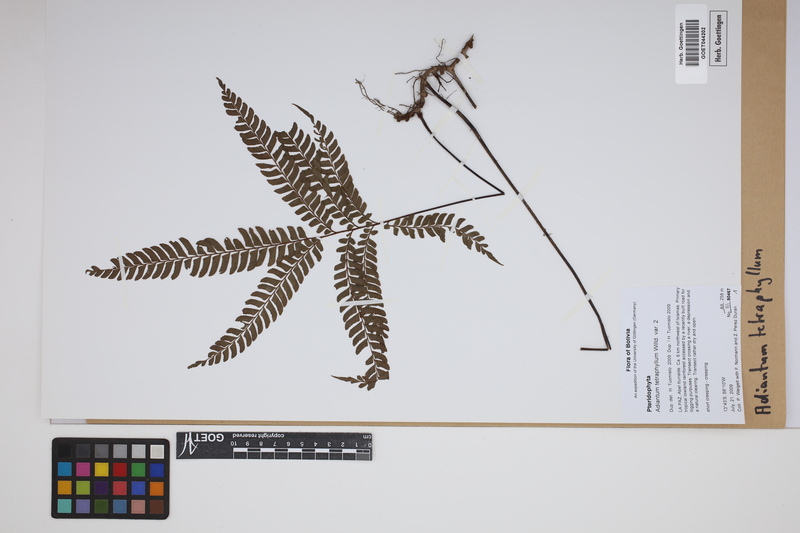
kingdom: Plantae
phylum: Tracheophyta
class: Polypodiopsida
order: Polypodiales
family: Pteridaceae
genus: Adiantum
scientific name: Adiantum tetraphyllum
